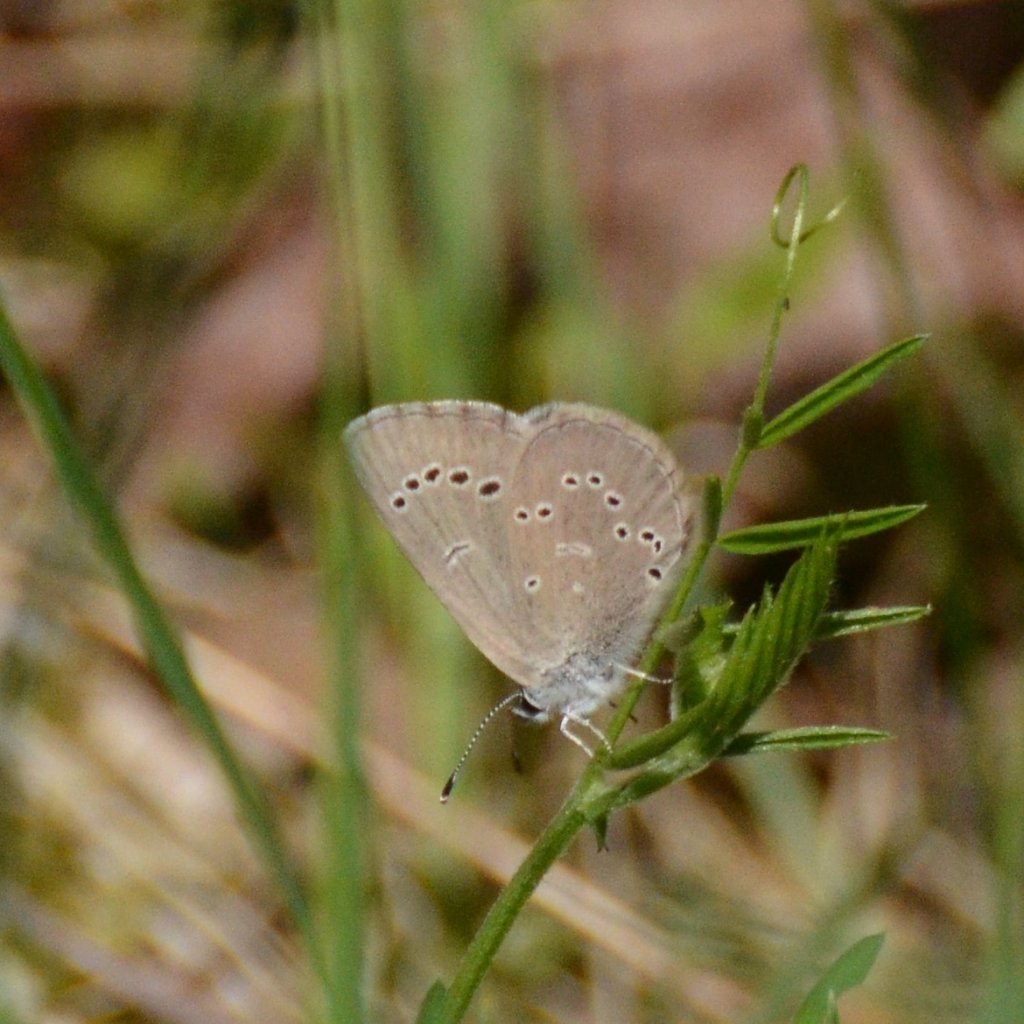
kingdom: Animalia
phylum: Arthropoda
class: Insecta
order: Lepidoptera
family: Lycaenidae
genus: Glaucopsyche
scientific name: Glaucopsyche lygdamus
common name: Silvery Blue
